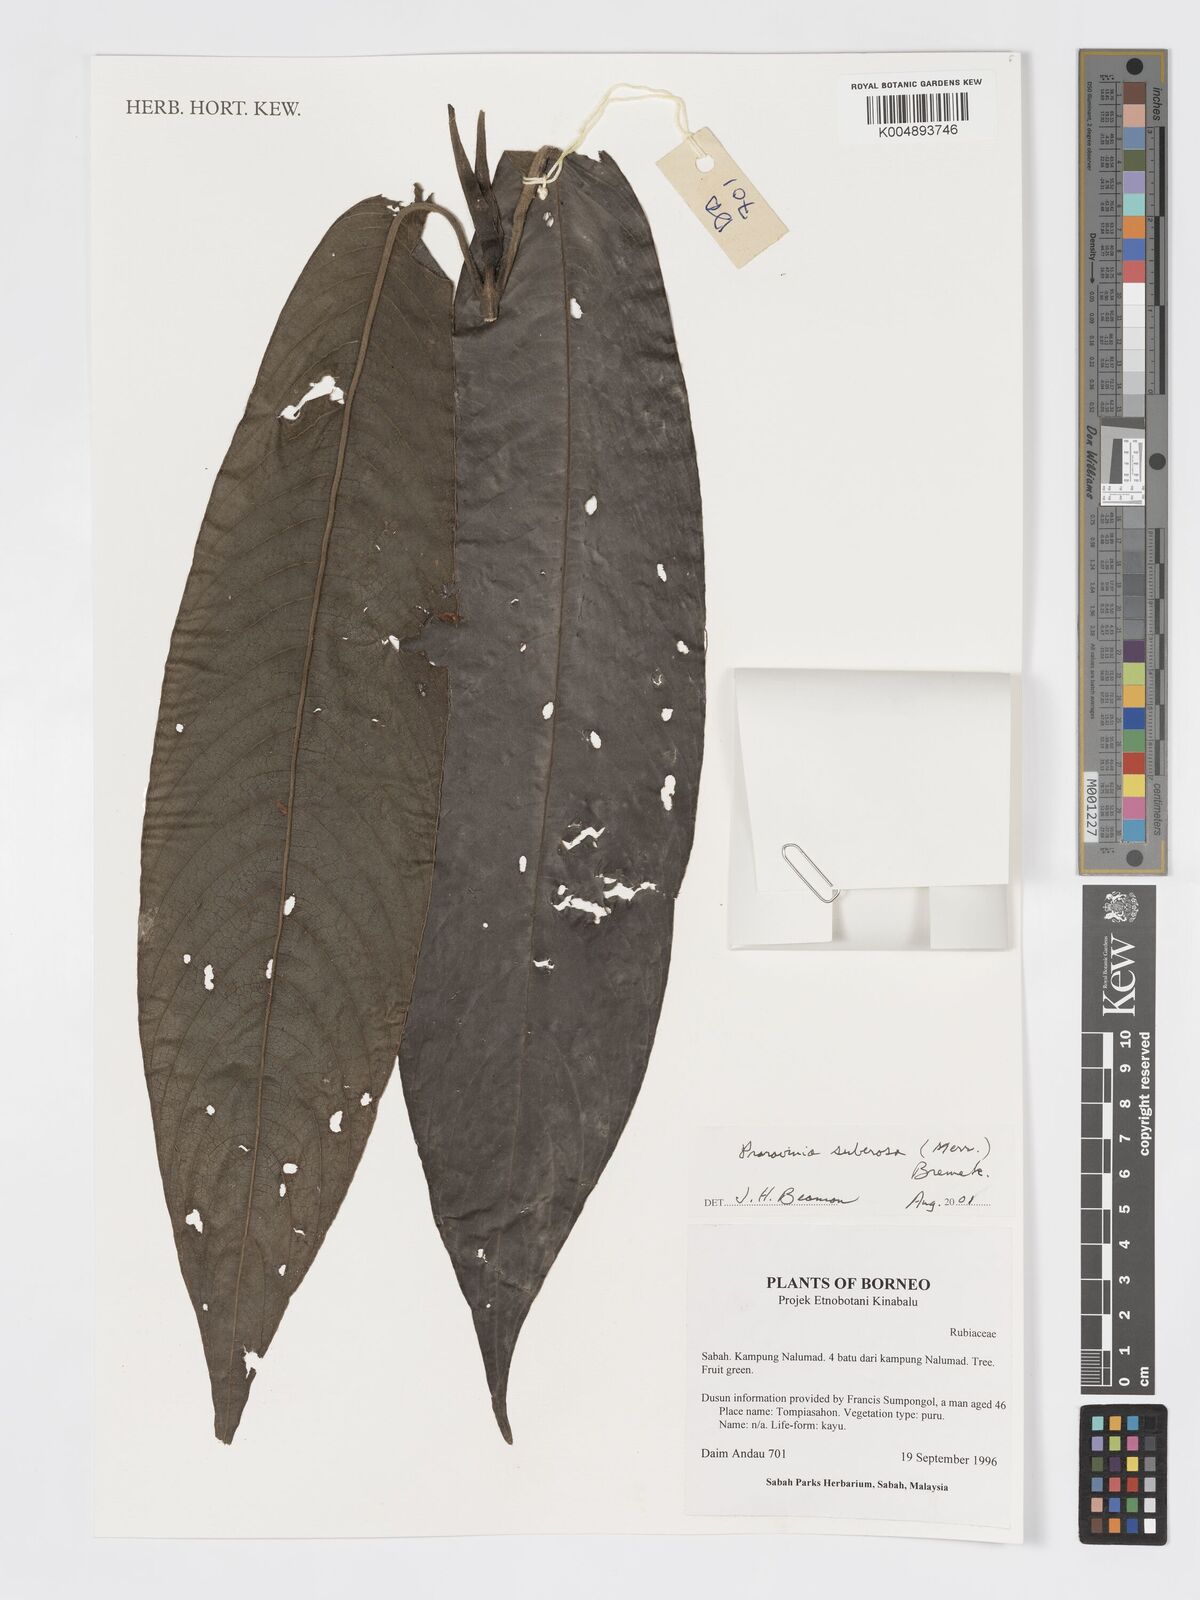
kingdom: Plantae
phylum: Tracheophyta
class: Magnoliopsida
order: Gentianales
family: Rubiaceae
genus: Praravinia
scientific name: Praravinia suberosa
